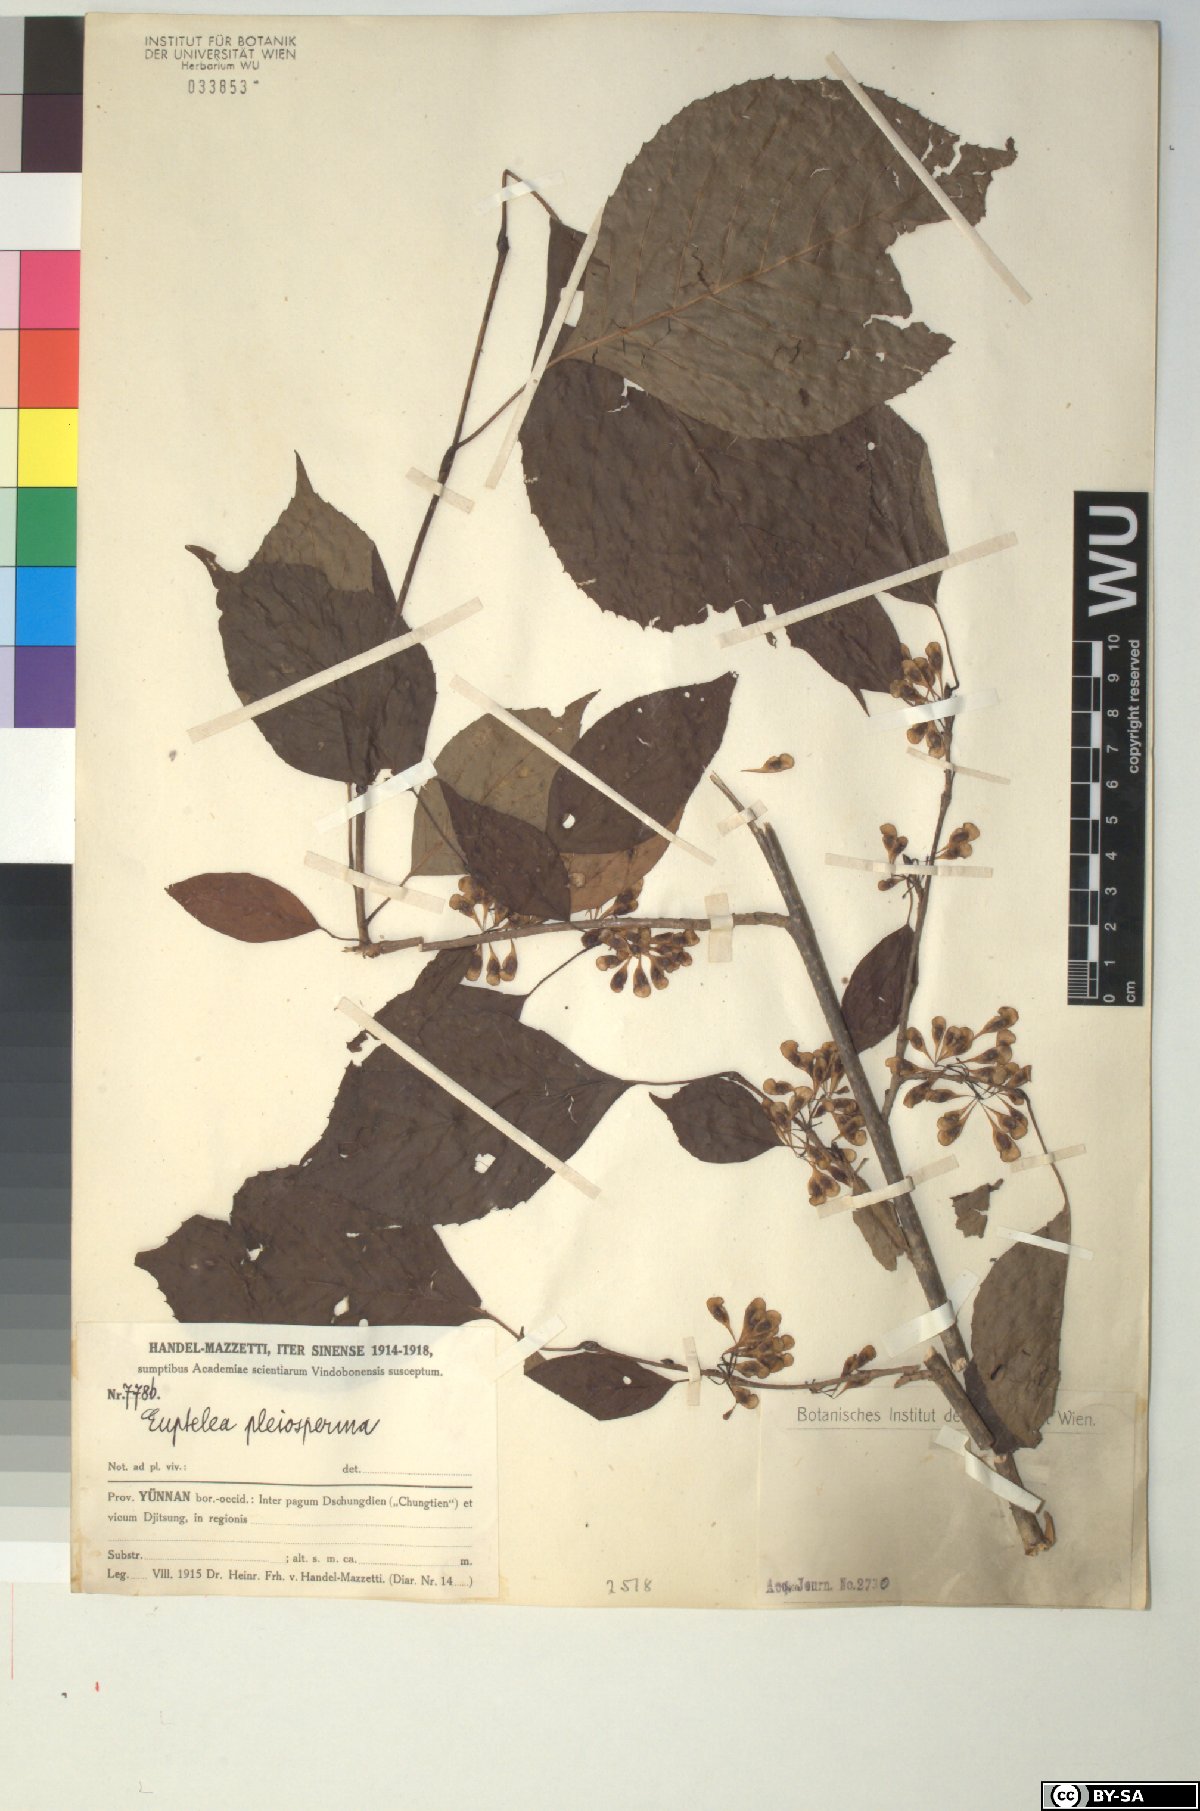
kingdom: Plantae
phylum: Tracheophyta
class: Magnoliopsida
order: Ranunculales
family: Eupteleaceae
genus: Euptelea
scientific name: Euptelea pleiosperma
